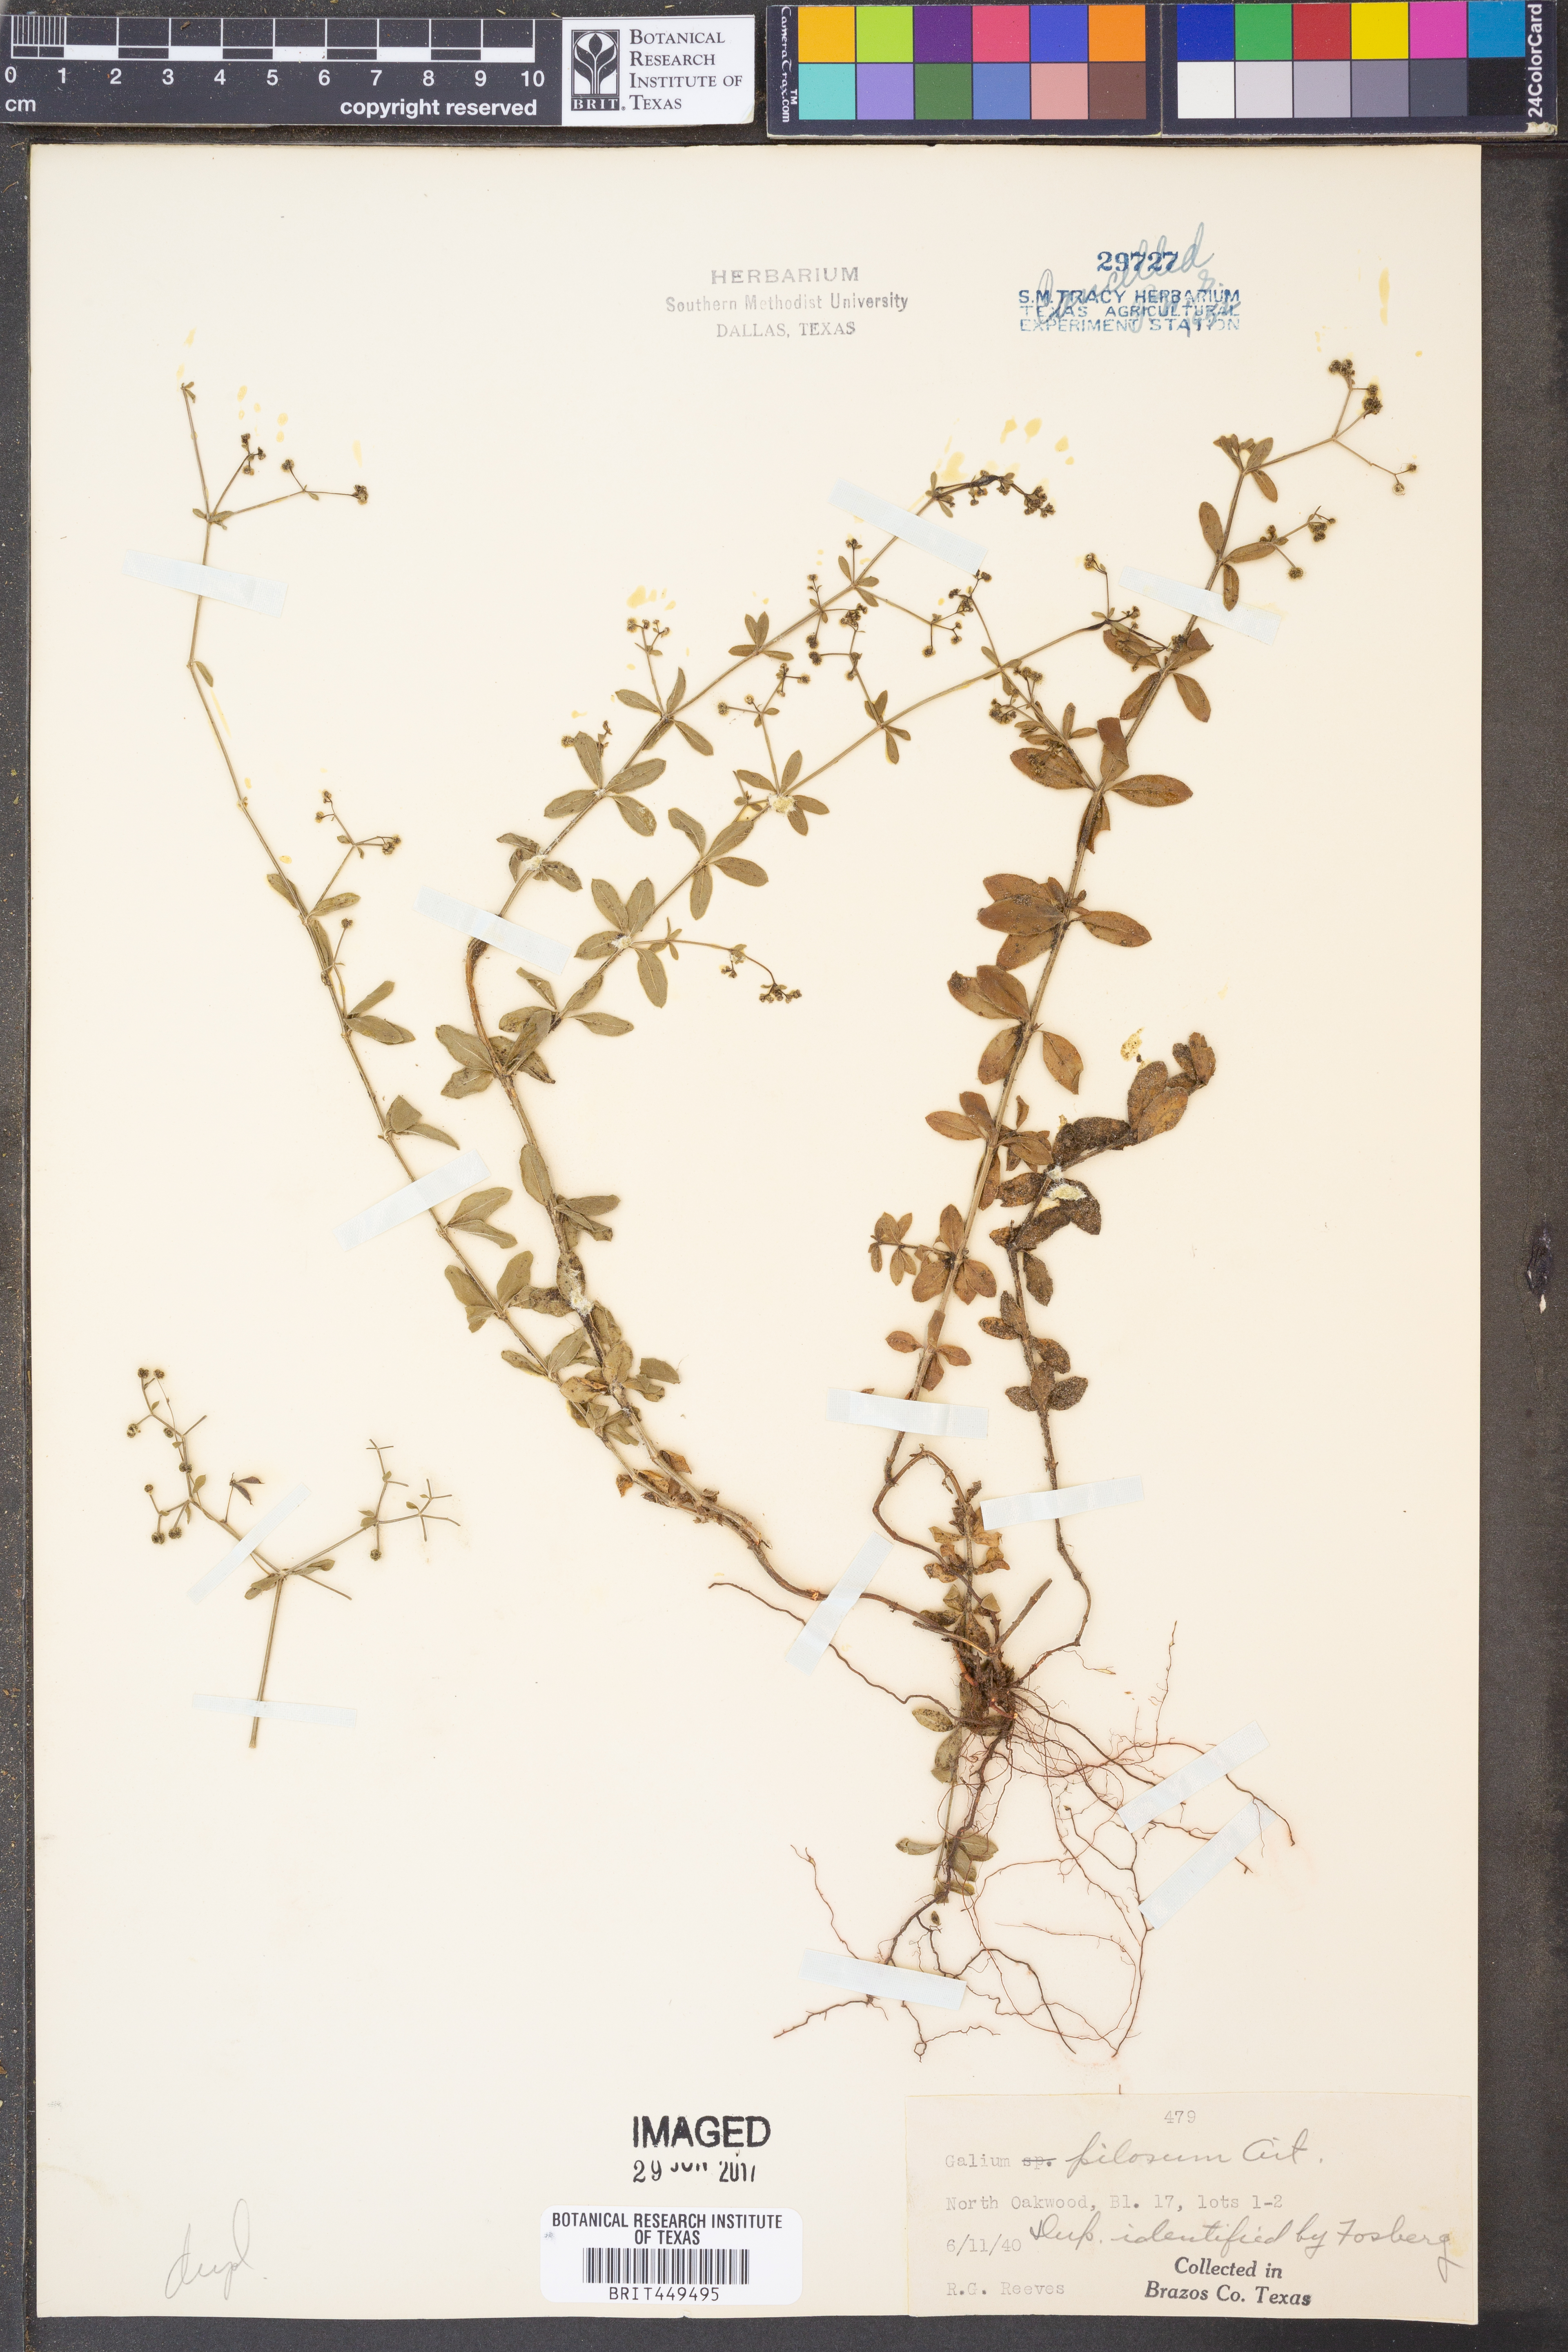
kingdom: Plantae
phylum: Tracheophyta
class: Magnoliopsida
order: Gentianales
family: Rubiaceae
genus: Galium
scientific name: Galium pilosum
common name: Hairy bedstraw
